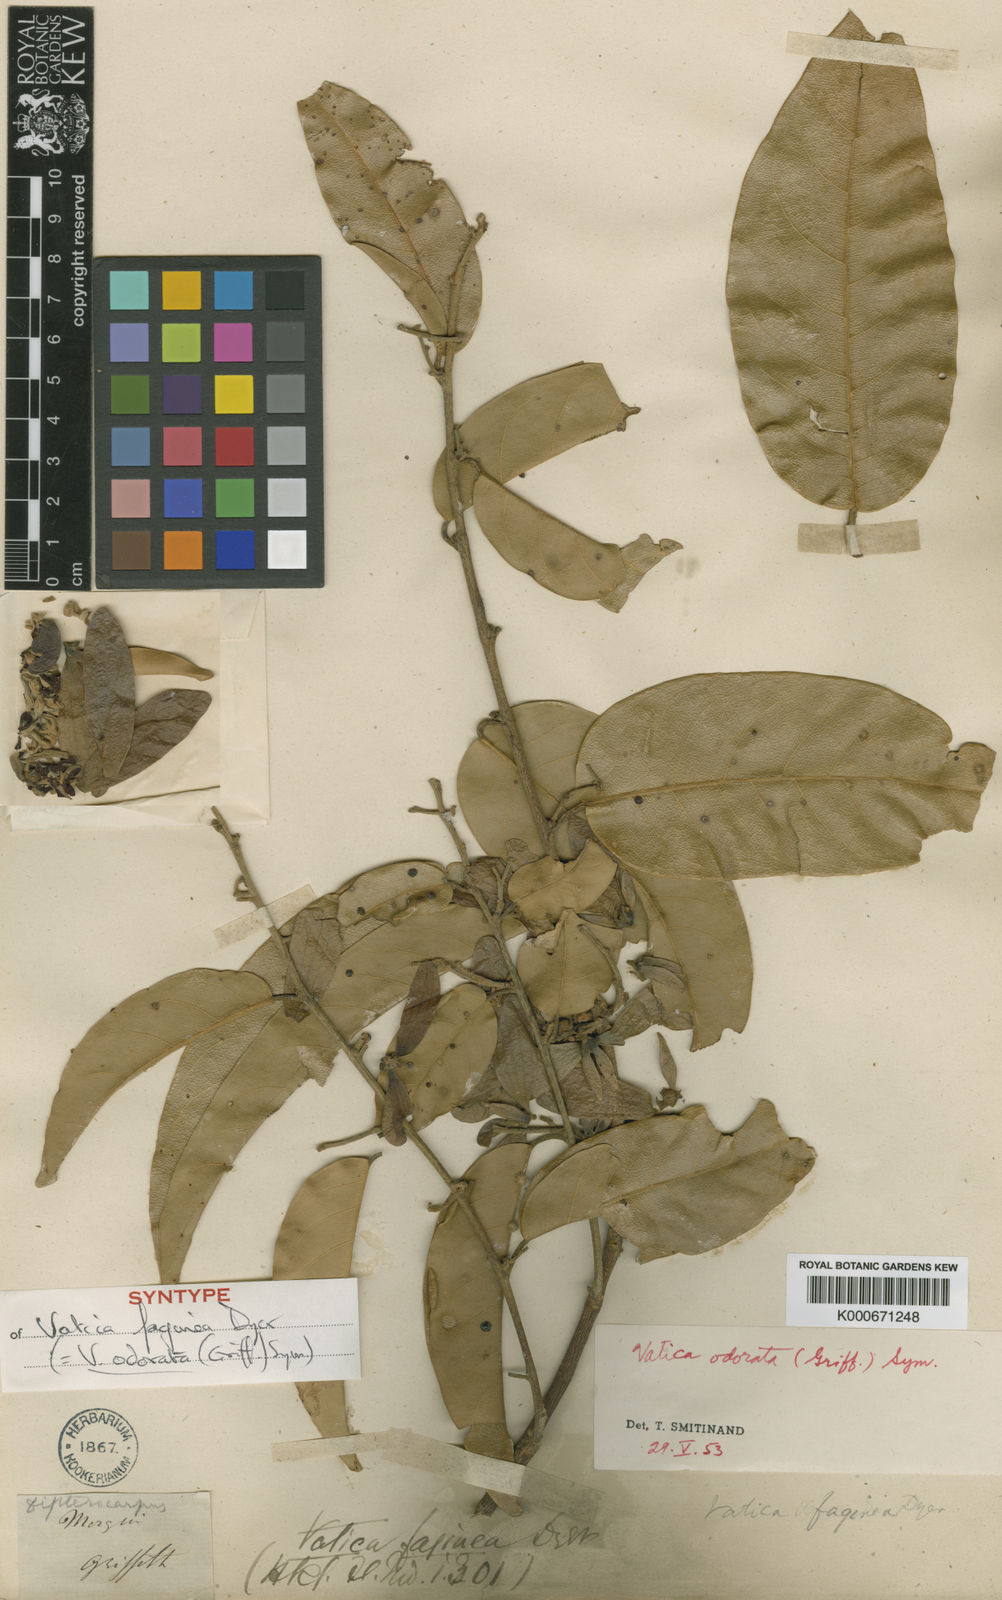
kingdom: Plantae
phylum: Tracheophyta
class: Magnoliopsida
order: Malvales
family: Dipterocarpaceae
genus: Vatica
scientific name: Vatica odorata
